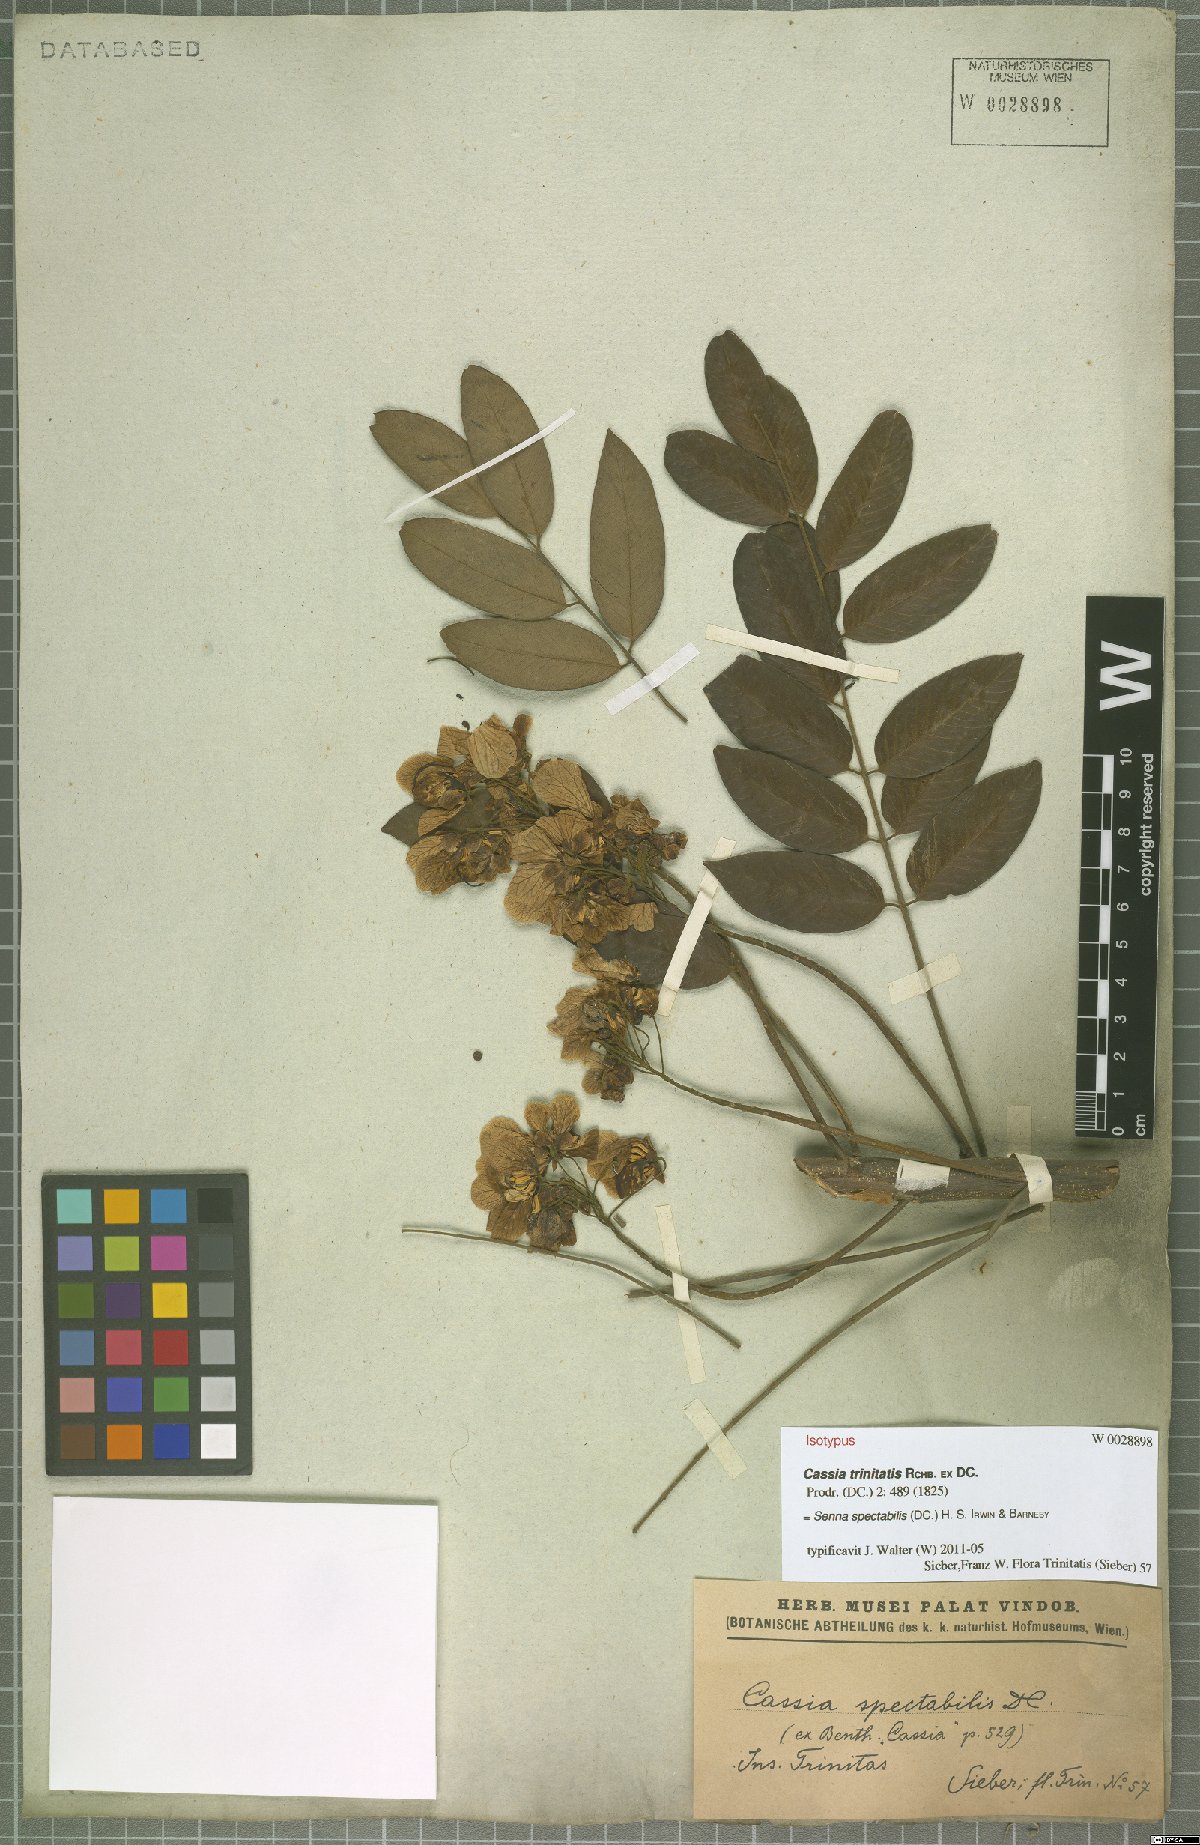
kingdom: Plantae
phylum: Tracheophyta
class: Magnoliopsida
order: Fabales
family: Fabaceae
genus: Senna
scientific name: Senna spectabilis
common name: Casia amarilla
